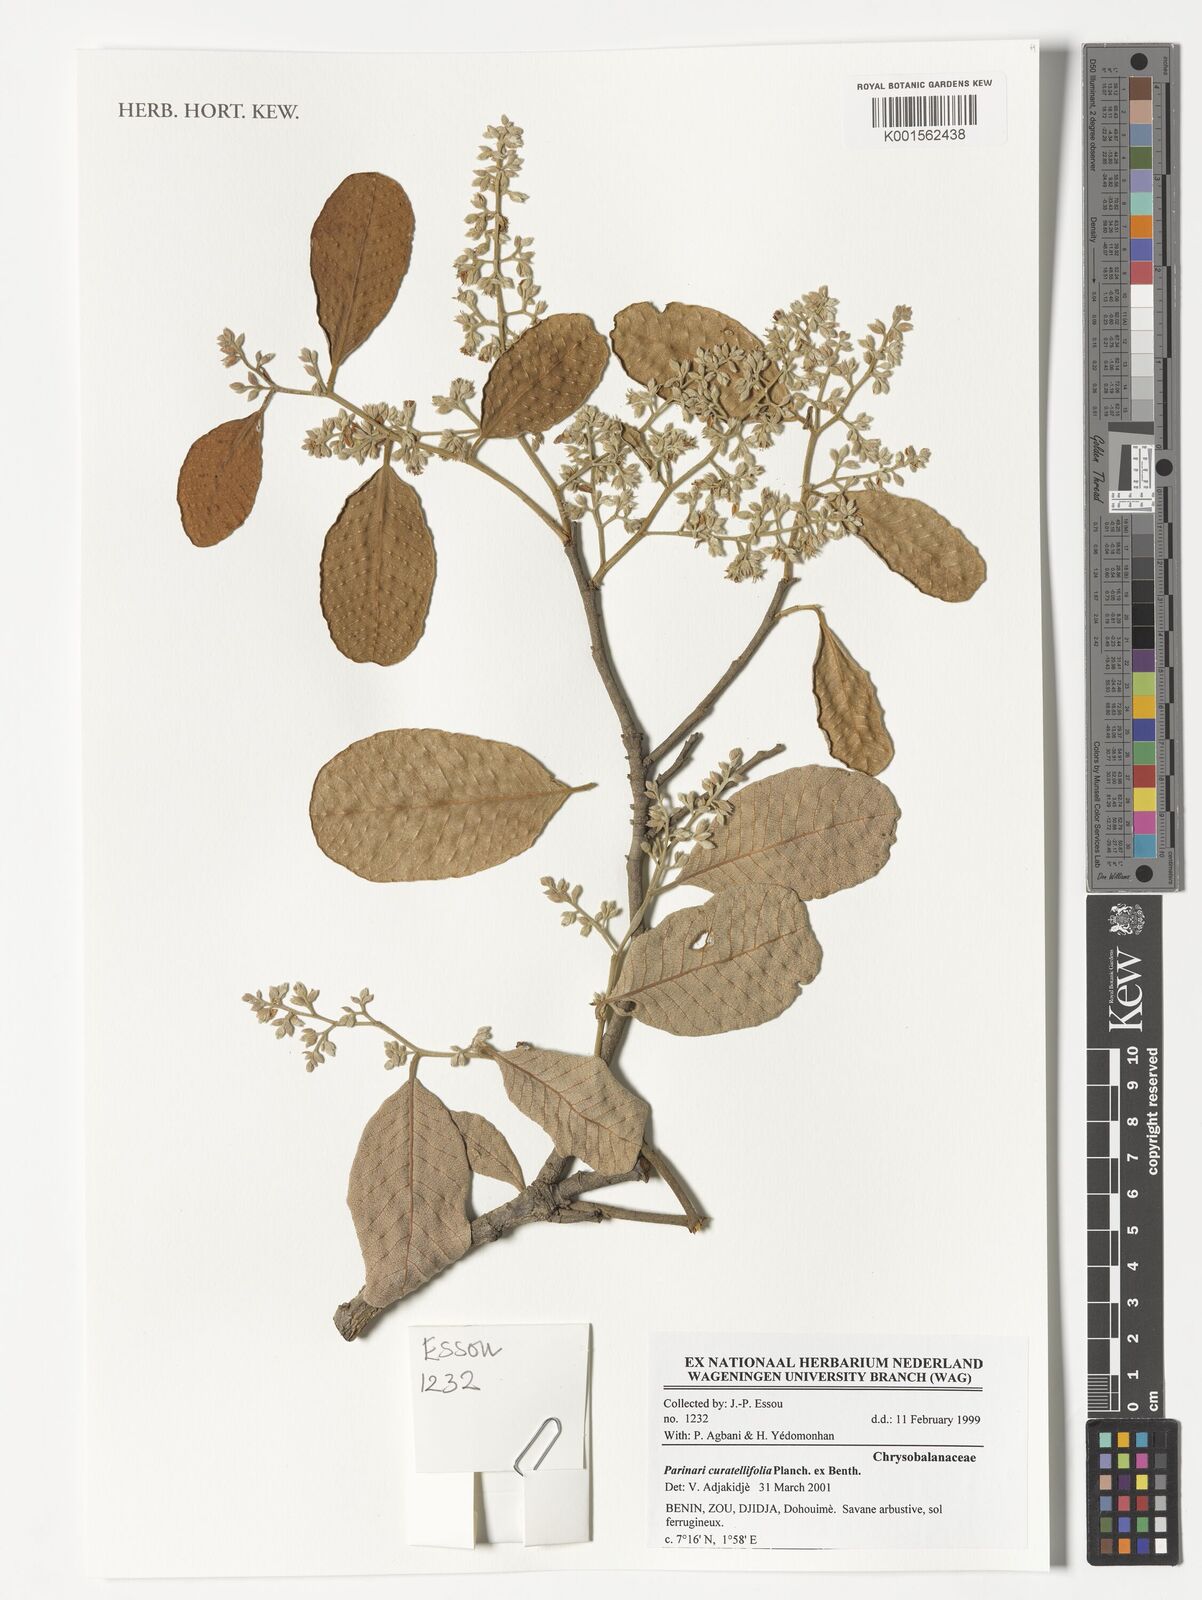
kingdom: Plantae
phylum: Tracheophyta
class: Magnoliopsida
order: Malpighiales
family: Chrysobalanaceae
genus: Parinari
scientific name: Parinari curatellifolia
